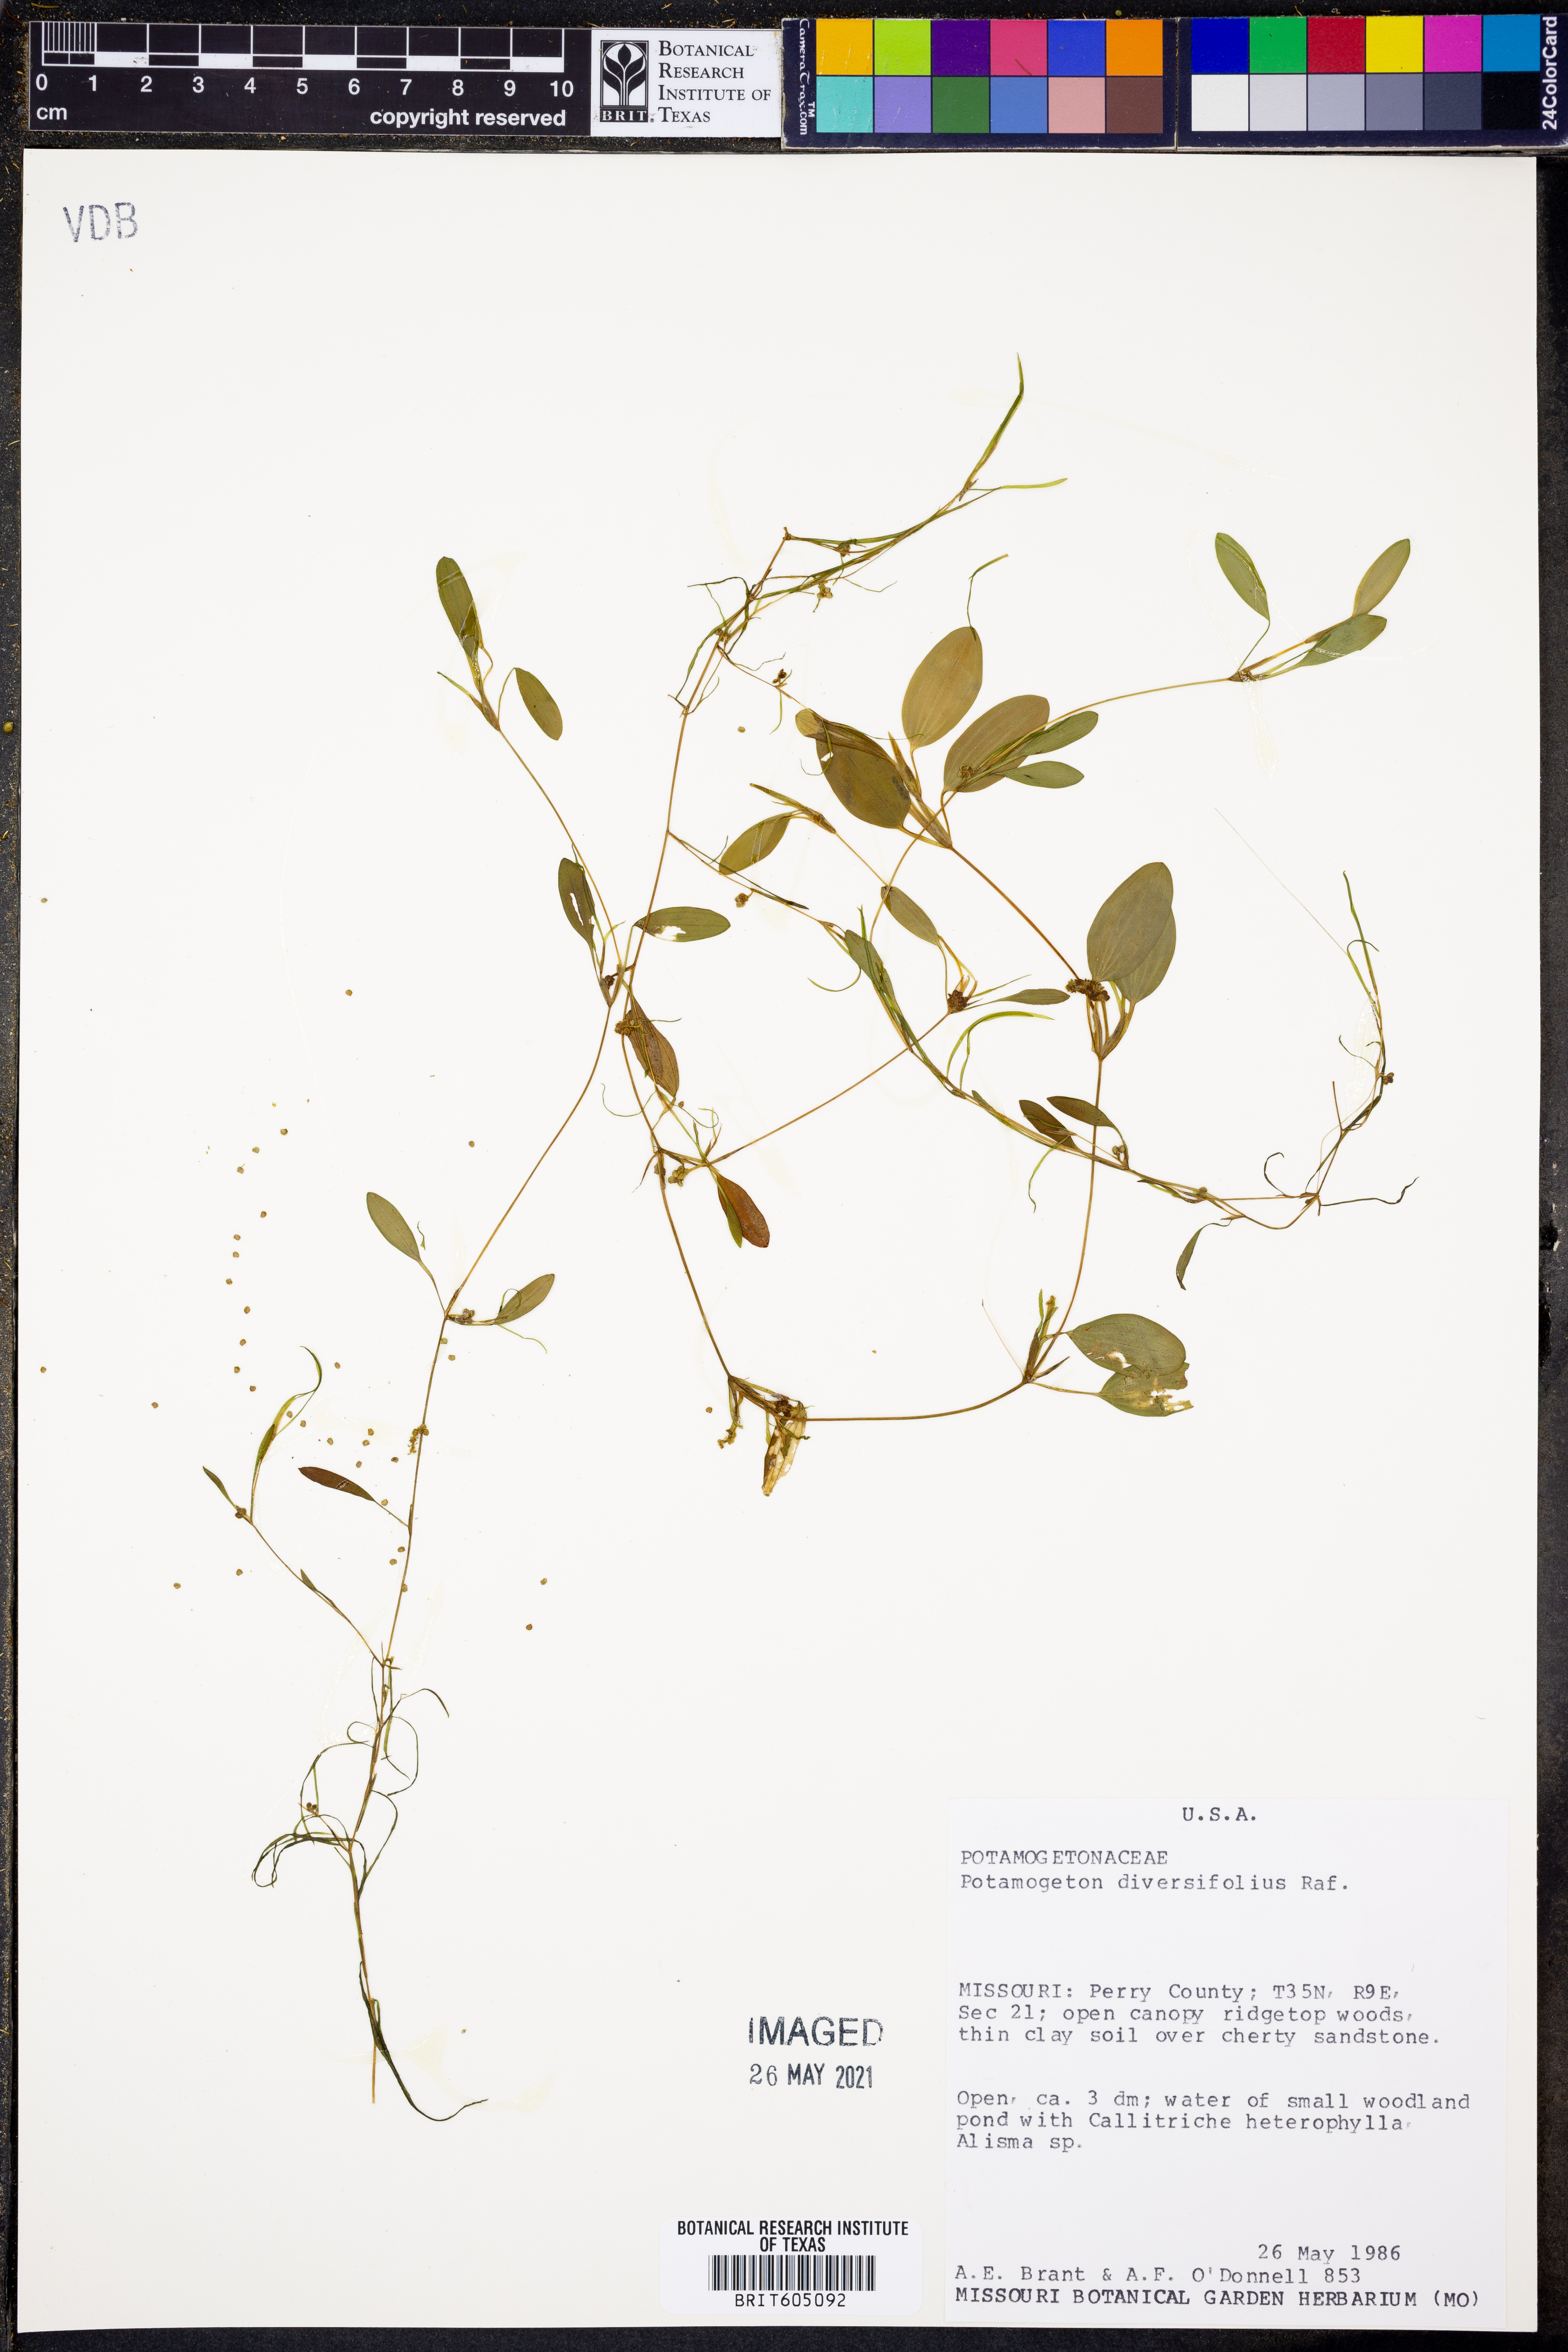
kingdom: Plantae
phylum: Tracheophyta
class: Liliopsida
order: Alismatales
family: Potamogetonaceae
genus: Potamogeton
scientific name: Potamogeton diversifolius
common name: Water-thread pondweed
